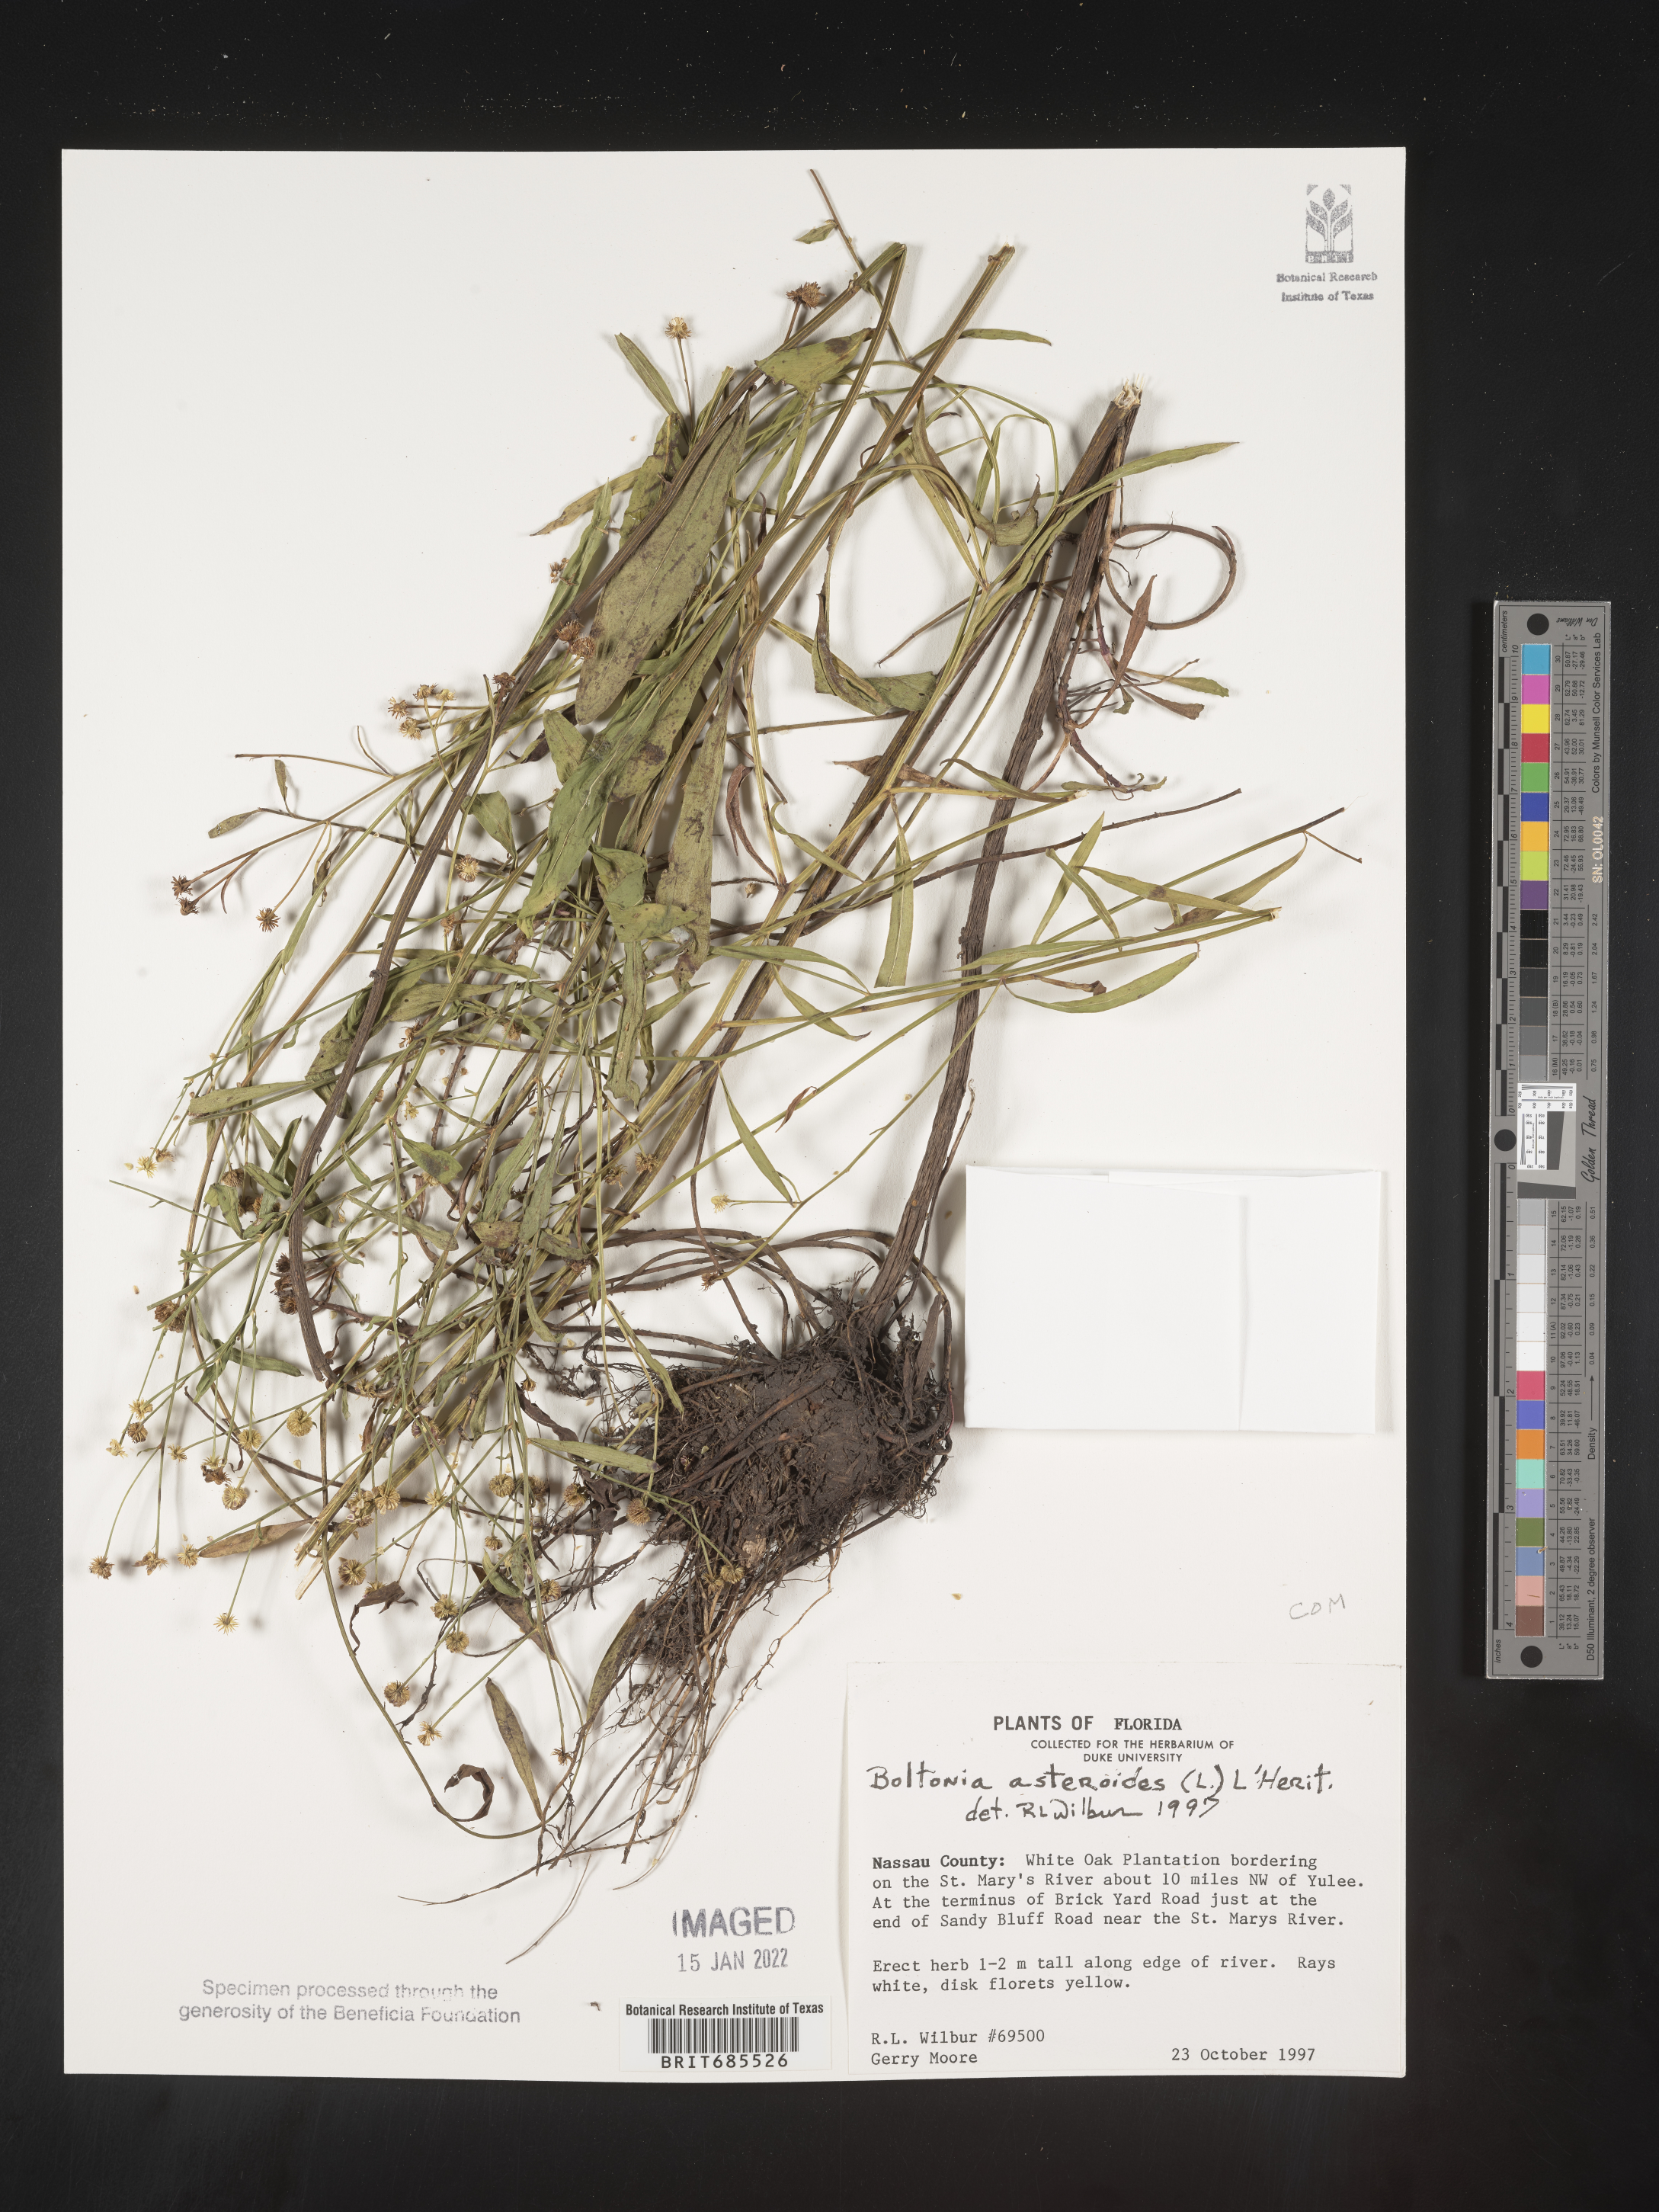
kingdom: Plantae
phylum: Tracheophyta
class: Magnoliopsida
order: Asterales
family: Asteraceae
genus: Boltonia
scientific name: Boltonia asteroides
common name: False chamomile
